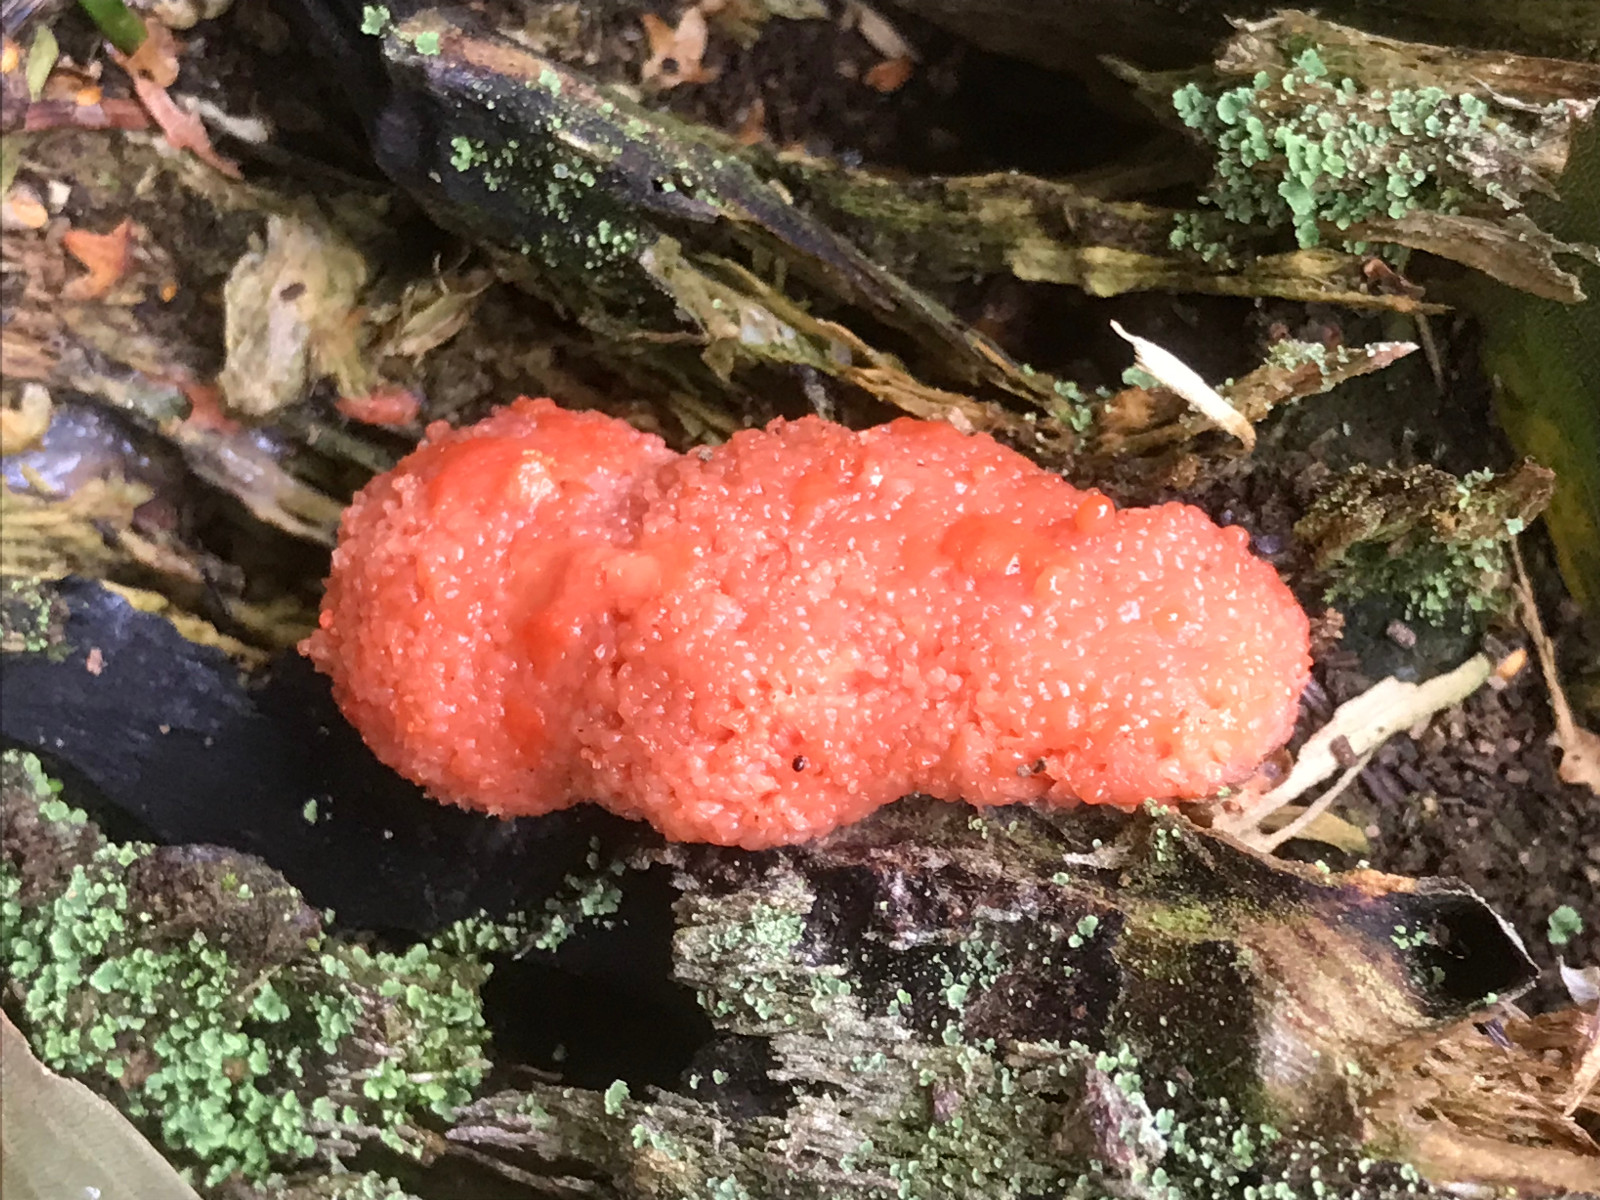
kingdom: Protozoa
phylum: Mycetozoa
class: Myxomycetes
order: Cribrariales
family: Tubiferaceae
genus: Tubifera
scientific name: Tubifera ferruginosa
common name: kanel-støvrør
